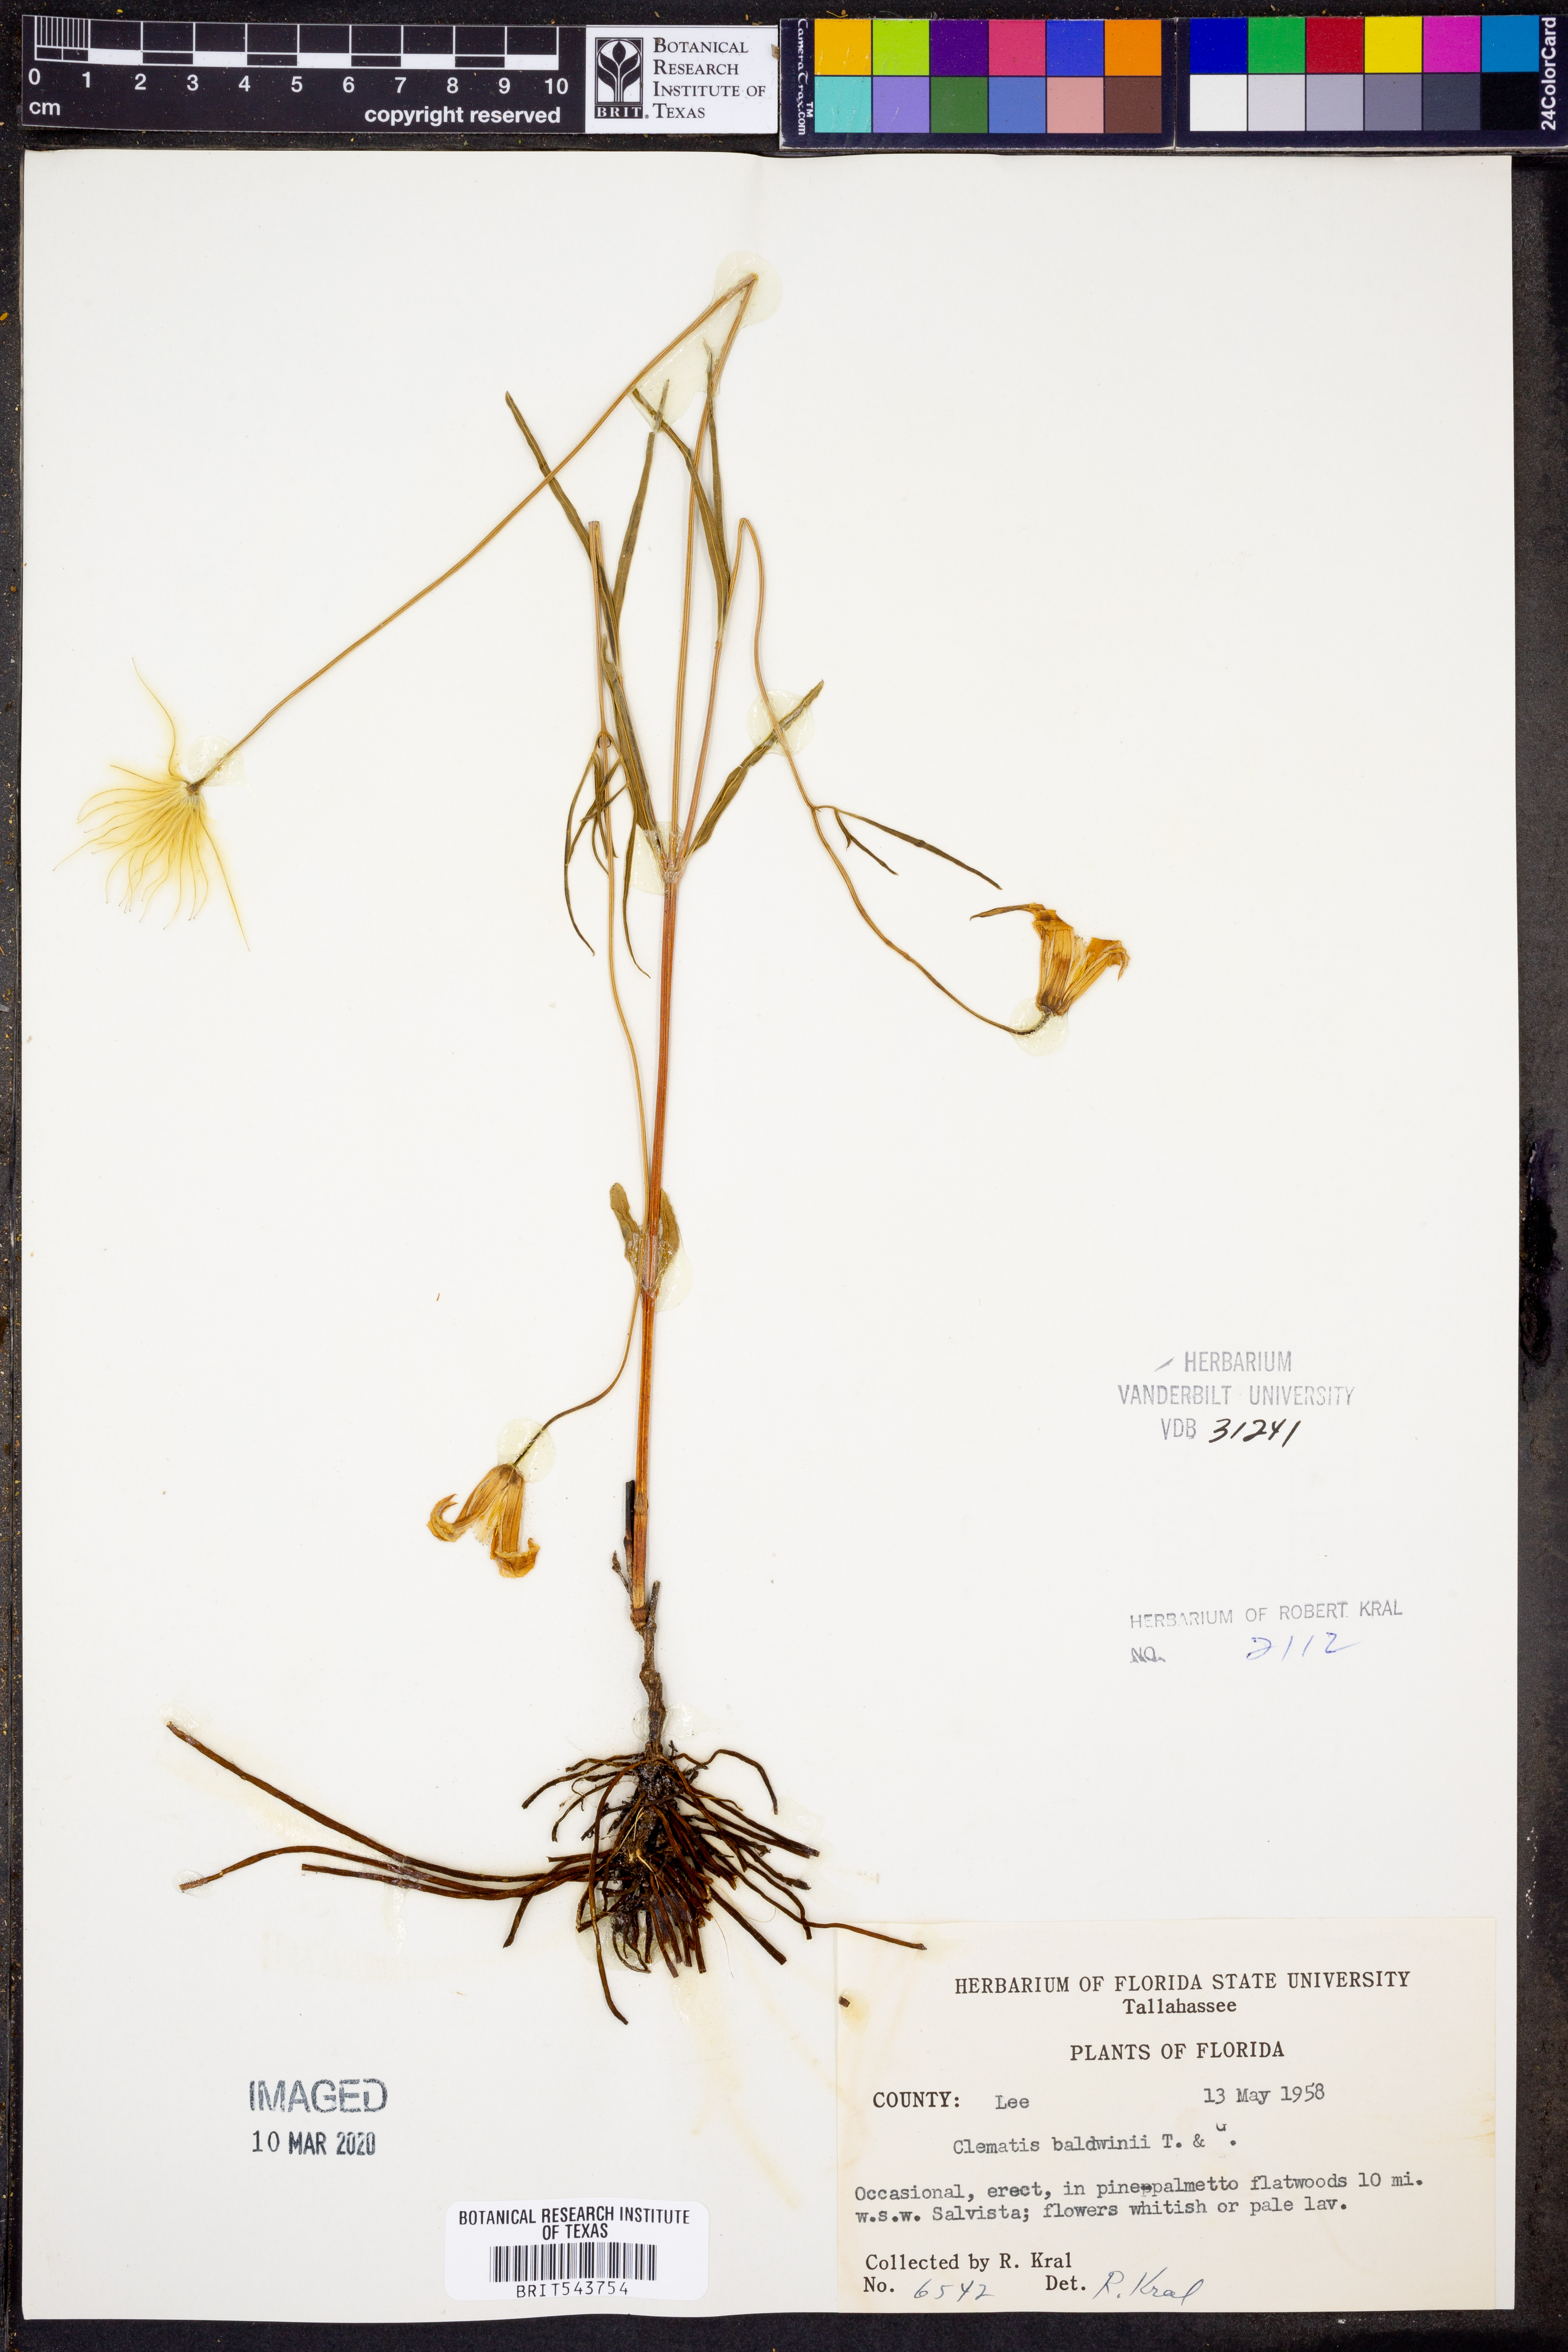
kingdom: Plantae
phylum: Tracheophyta
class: Magnoliopsida
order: Ranunculales
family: Ranunculaceae
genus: Clematis
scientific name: Clematis baldwinii
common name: Pine-hyacinth
